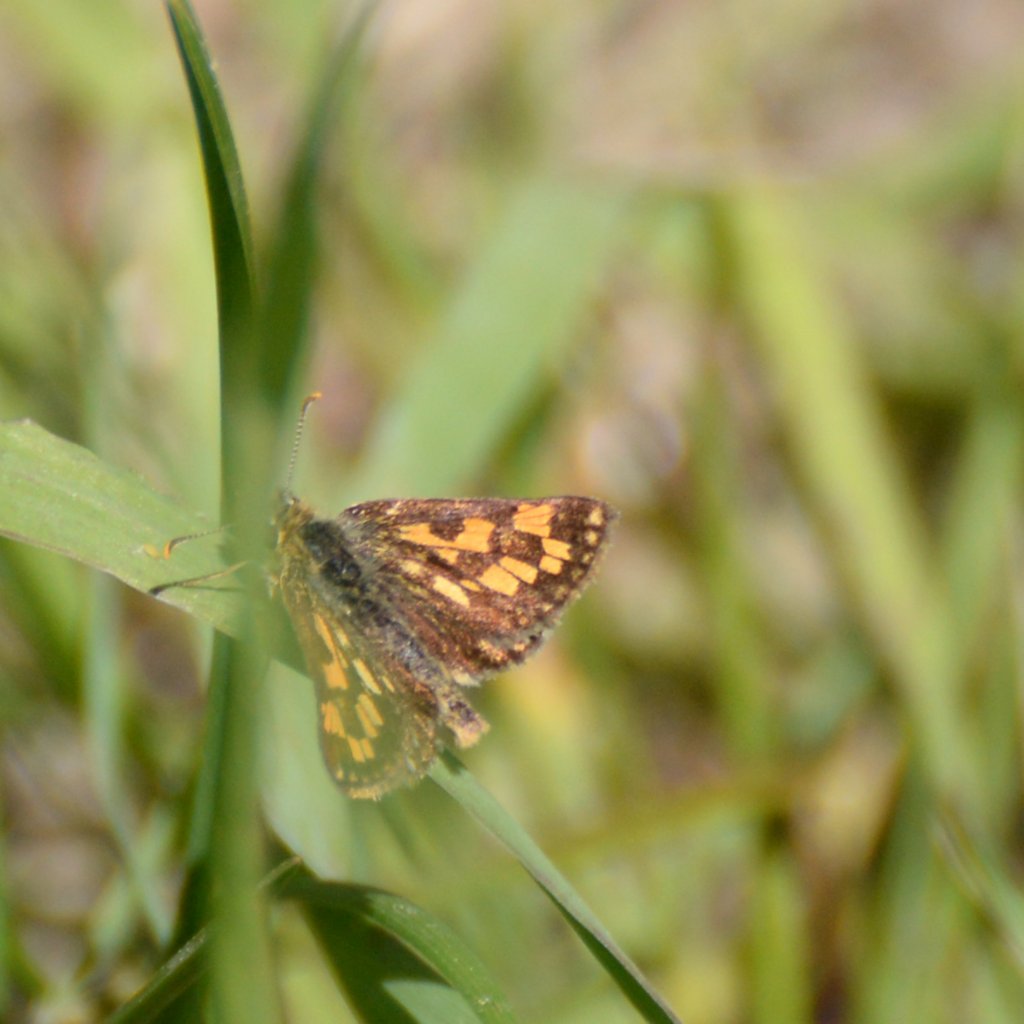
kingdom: Animalia
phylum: Arthropoda
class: Insecta
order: Lepidoptera
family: Hesperiidae
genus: Carterocephalus
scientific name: Carterocephalus palaemon
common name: Chequered Skipper
